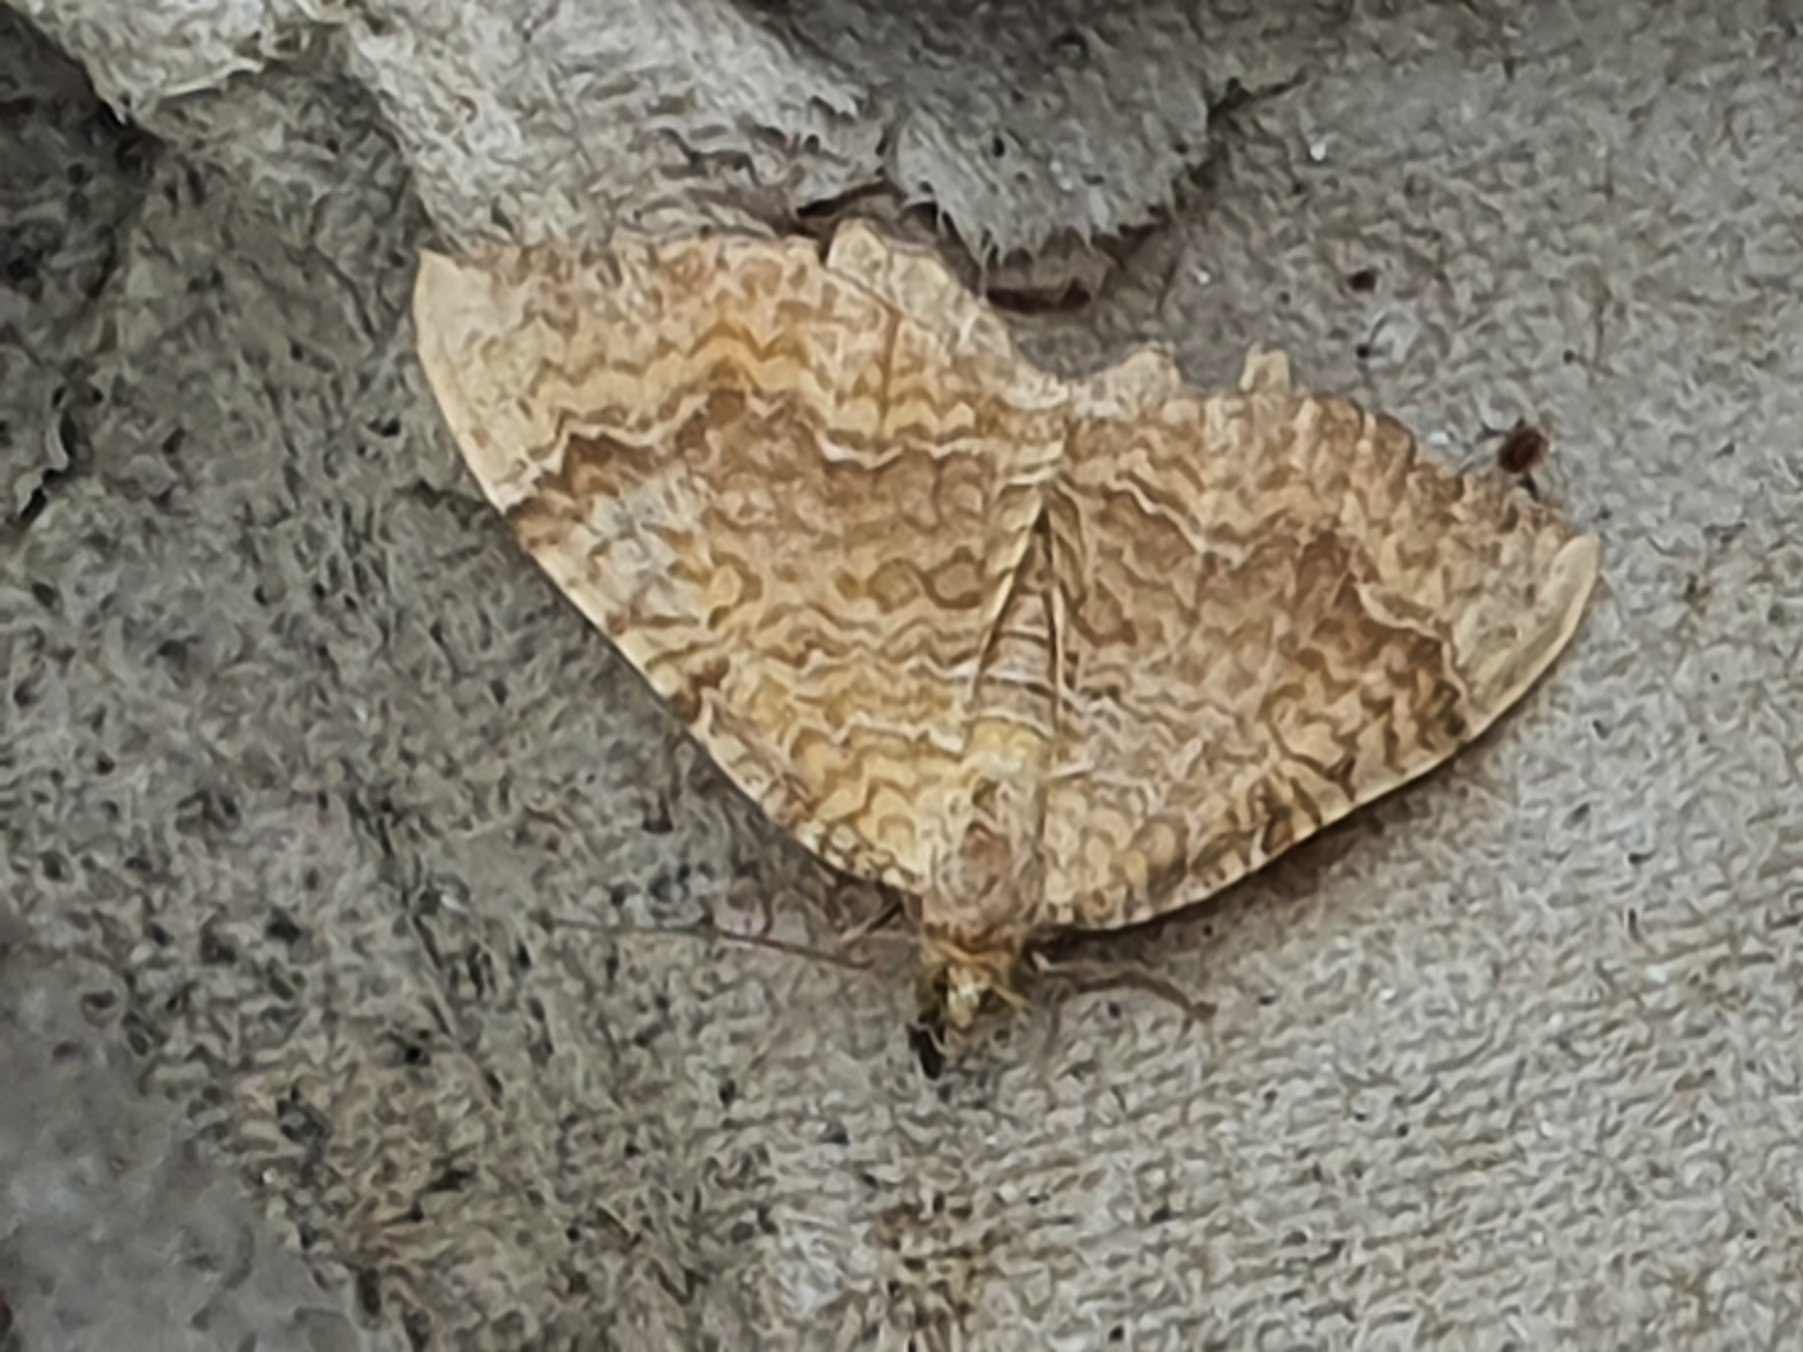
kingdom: Animalia
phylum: Arthropoda
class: Insecta
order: Lepidoptera
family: Geometridae
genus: Camptogramma
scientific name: Camptogramma bilineata
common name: Okkergul bladmåler
